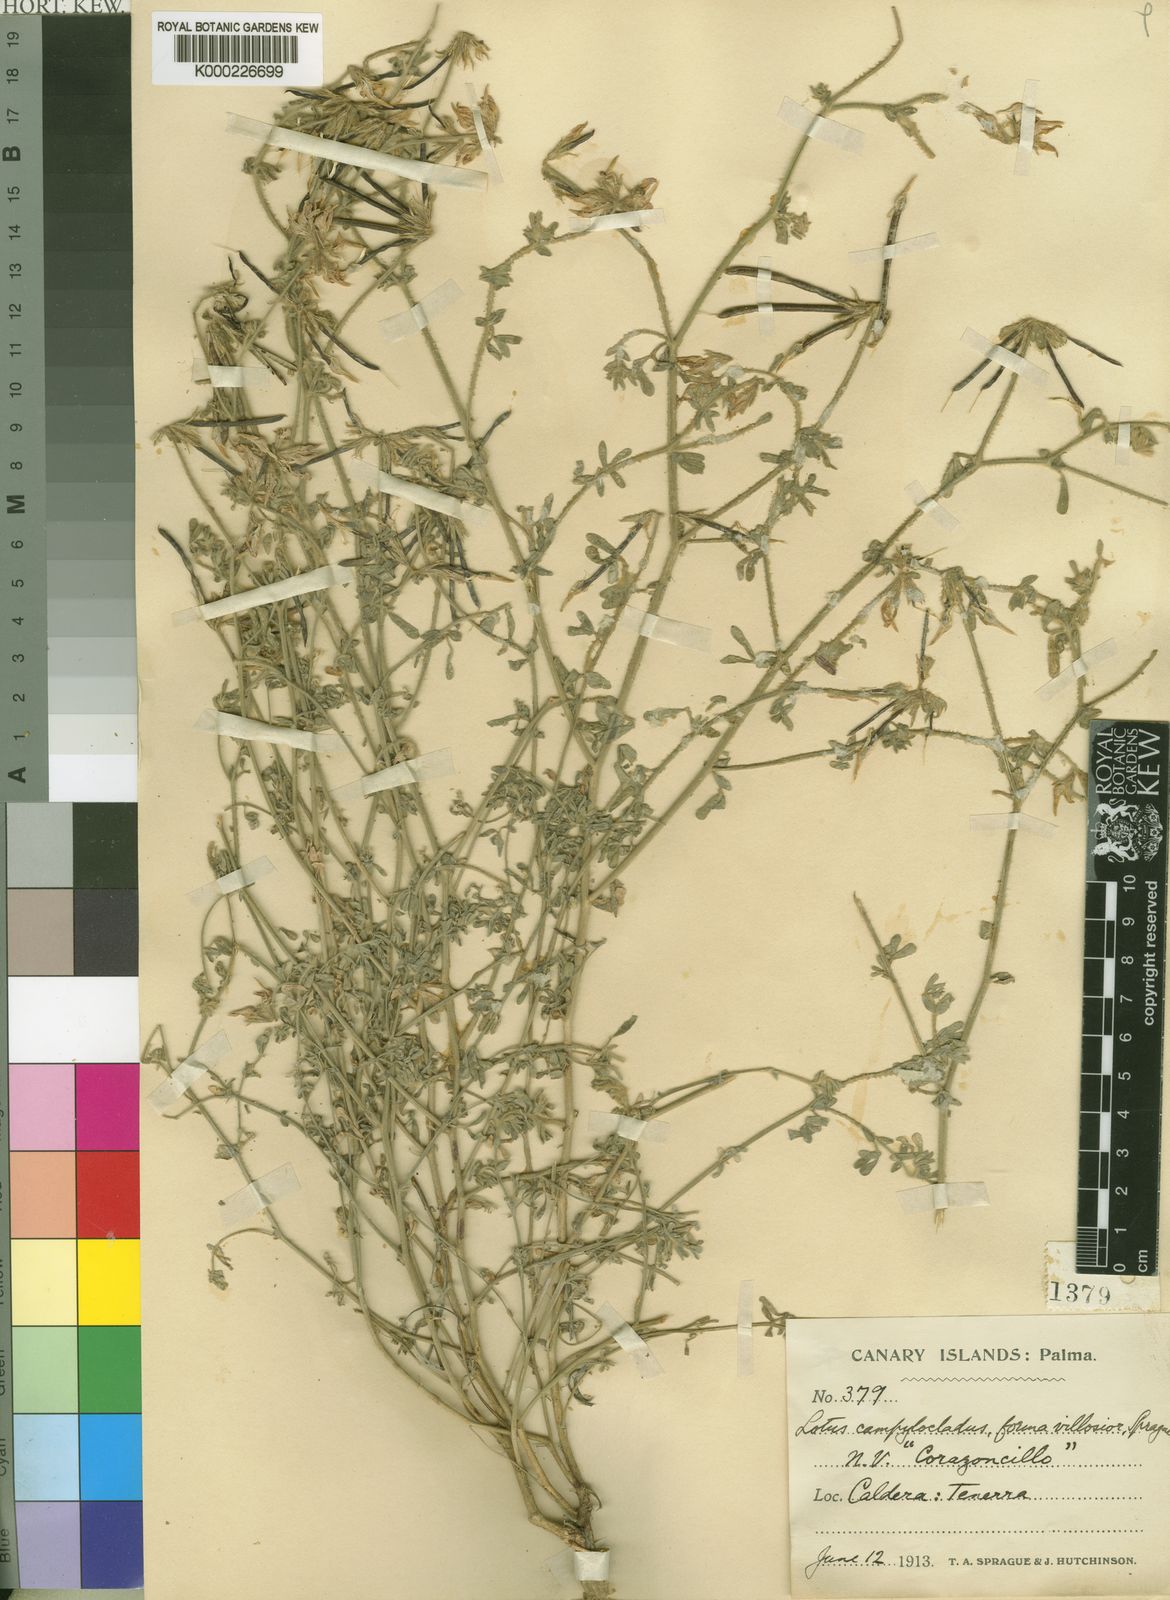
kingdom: Plantae
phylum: Tracheophyta
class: Magnoliopsida
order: Fabales
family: Fabaceae
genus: Lotus
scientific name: Lotus campylocladus
